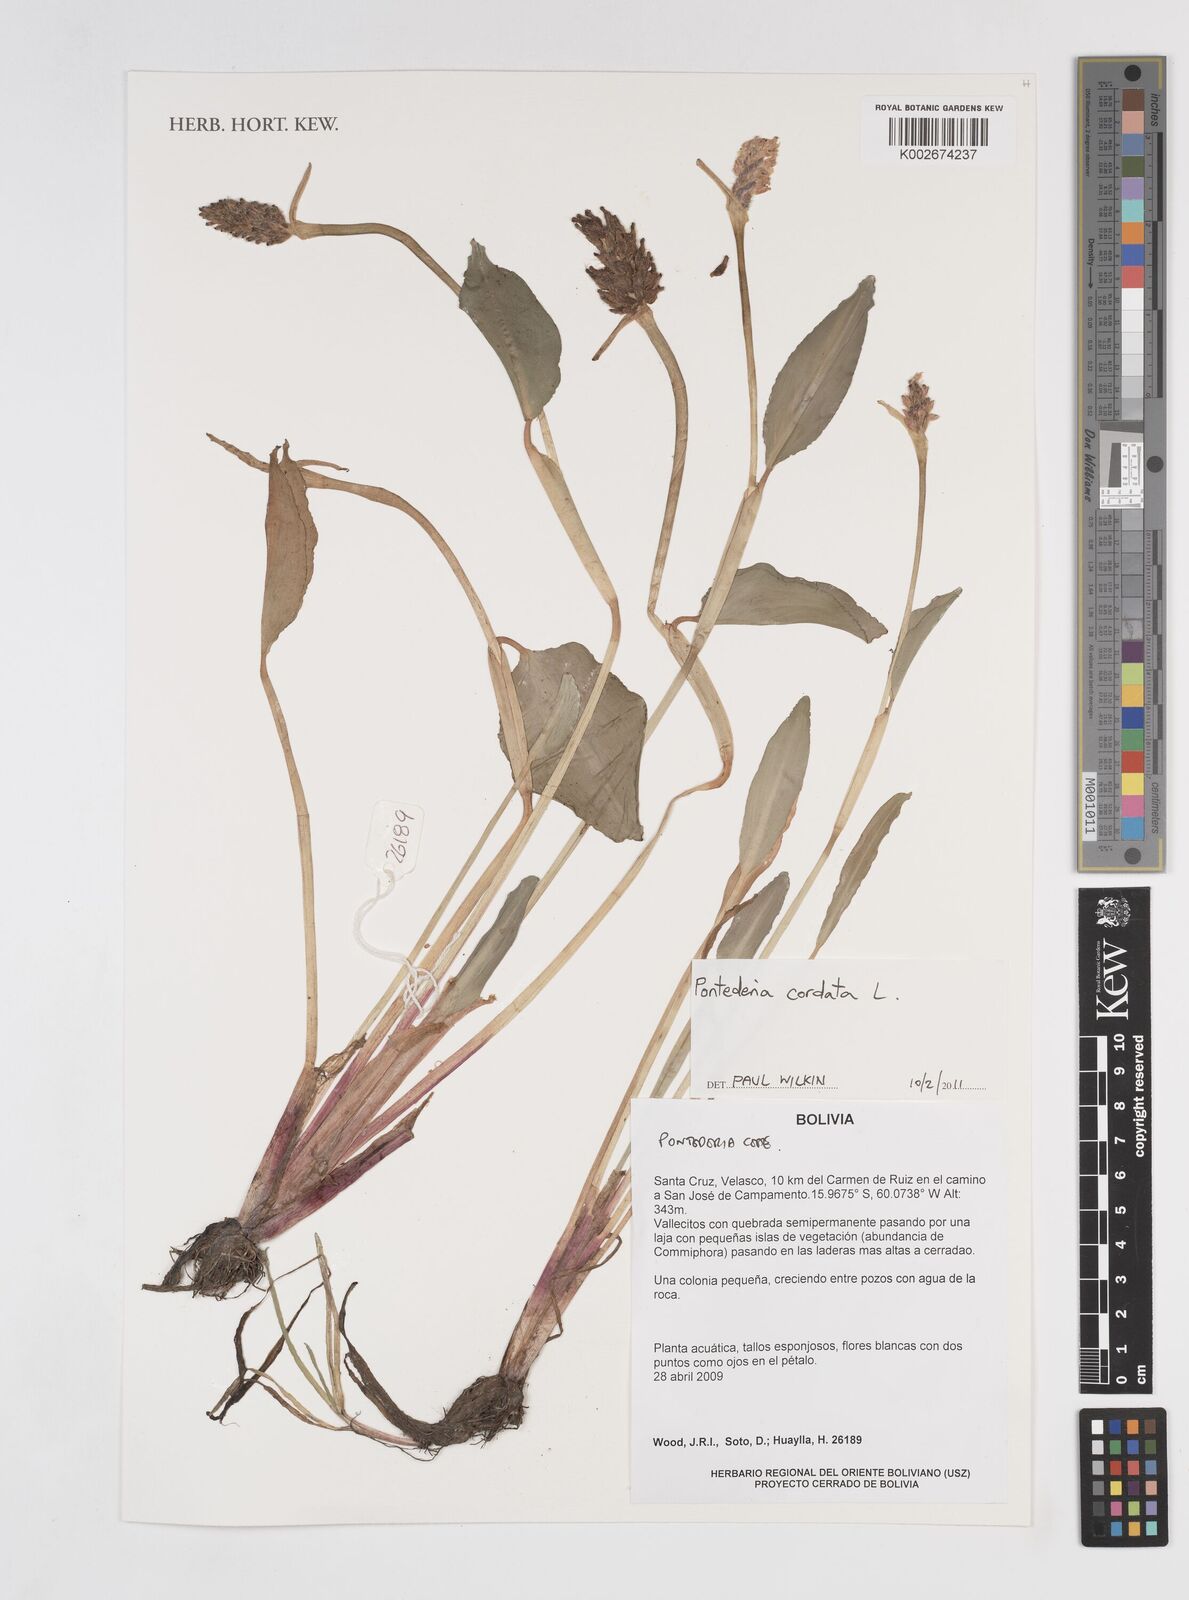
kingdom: Plantae
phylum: Tracheophyta
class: Liliopsida
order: Commelinales
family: Pontederiaceae
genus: Pontederia
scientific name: Pontederia
